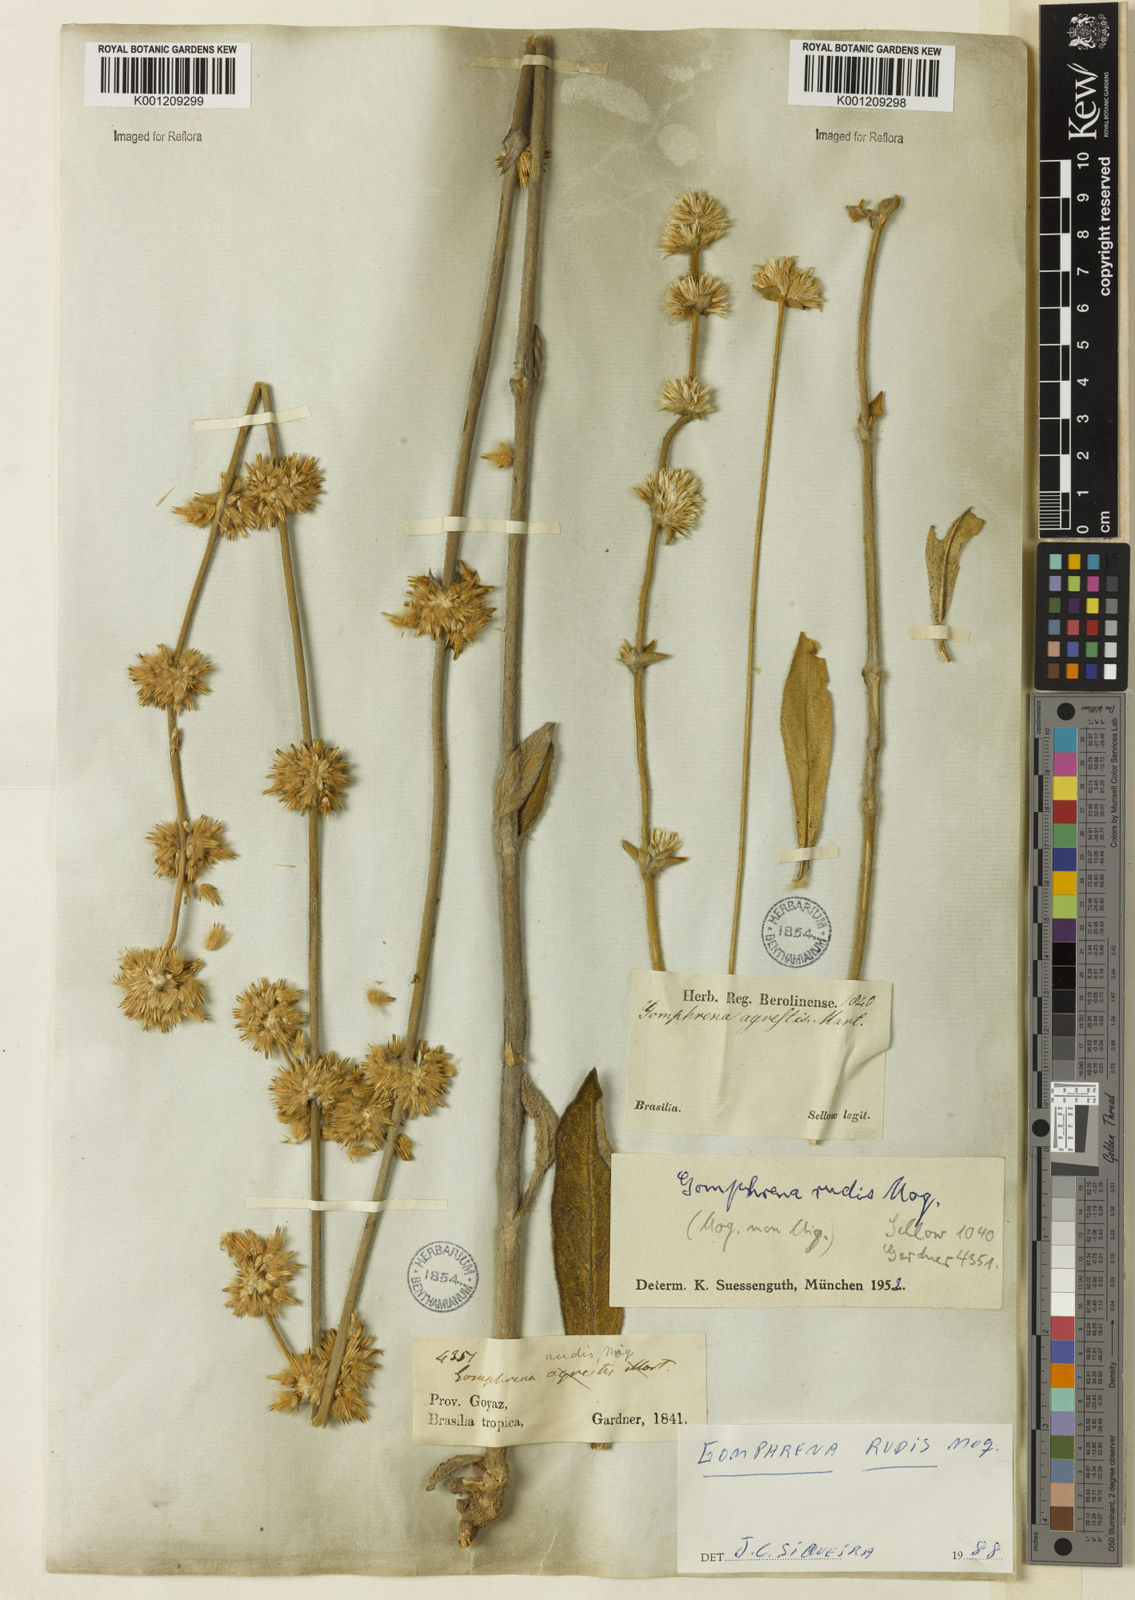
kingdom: Plantae
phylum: Tracheophyta
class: Magnoliopsida
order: Caryophyllales
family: Amaranthaceae
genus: Gomphrena
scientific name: Gomphrena rudis
